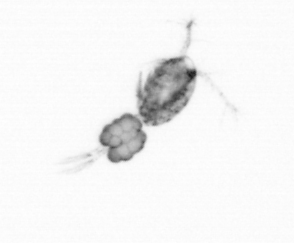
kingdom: Animalia
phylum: Arthropoda
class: Copepoda
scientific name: Copepoda
